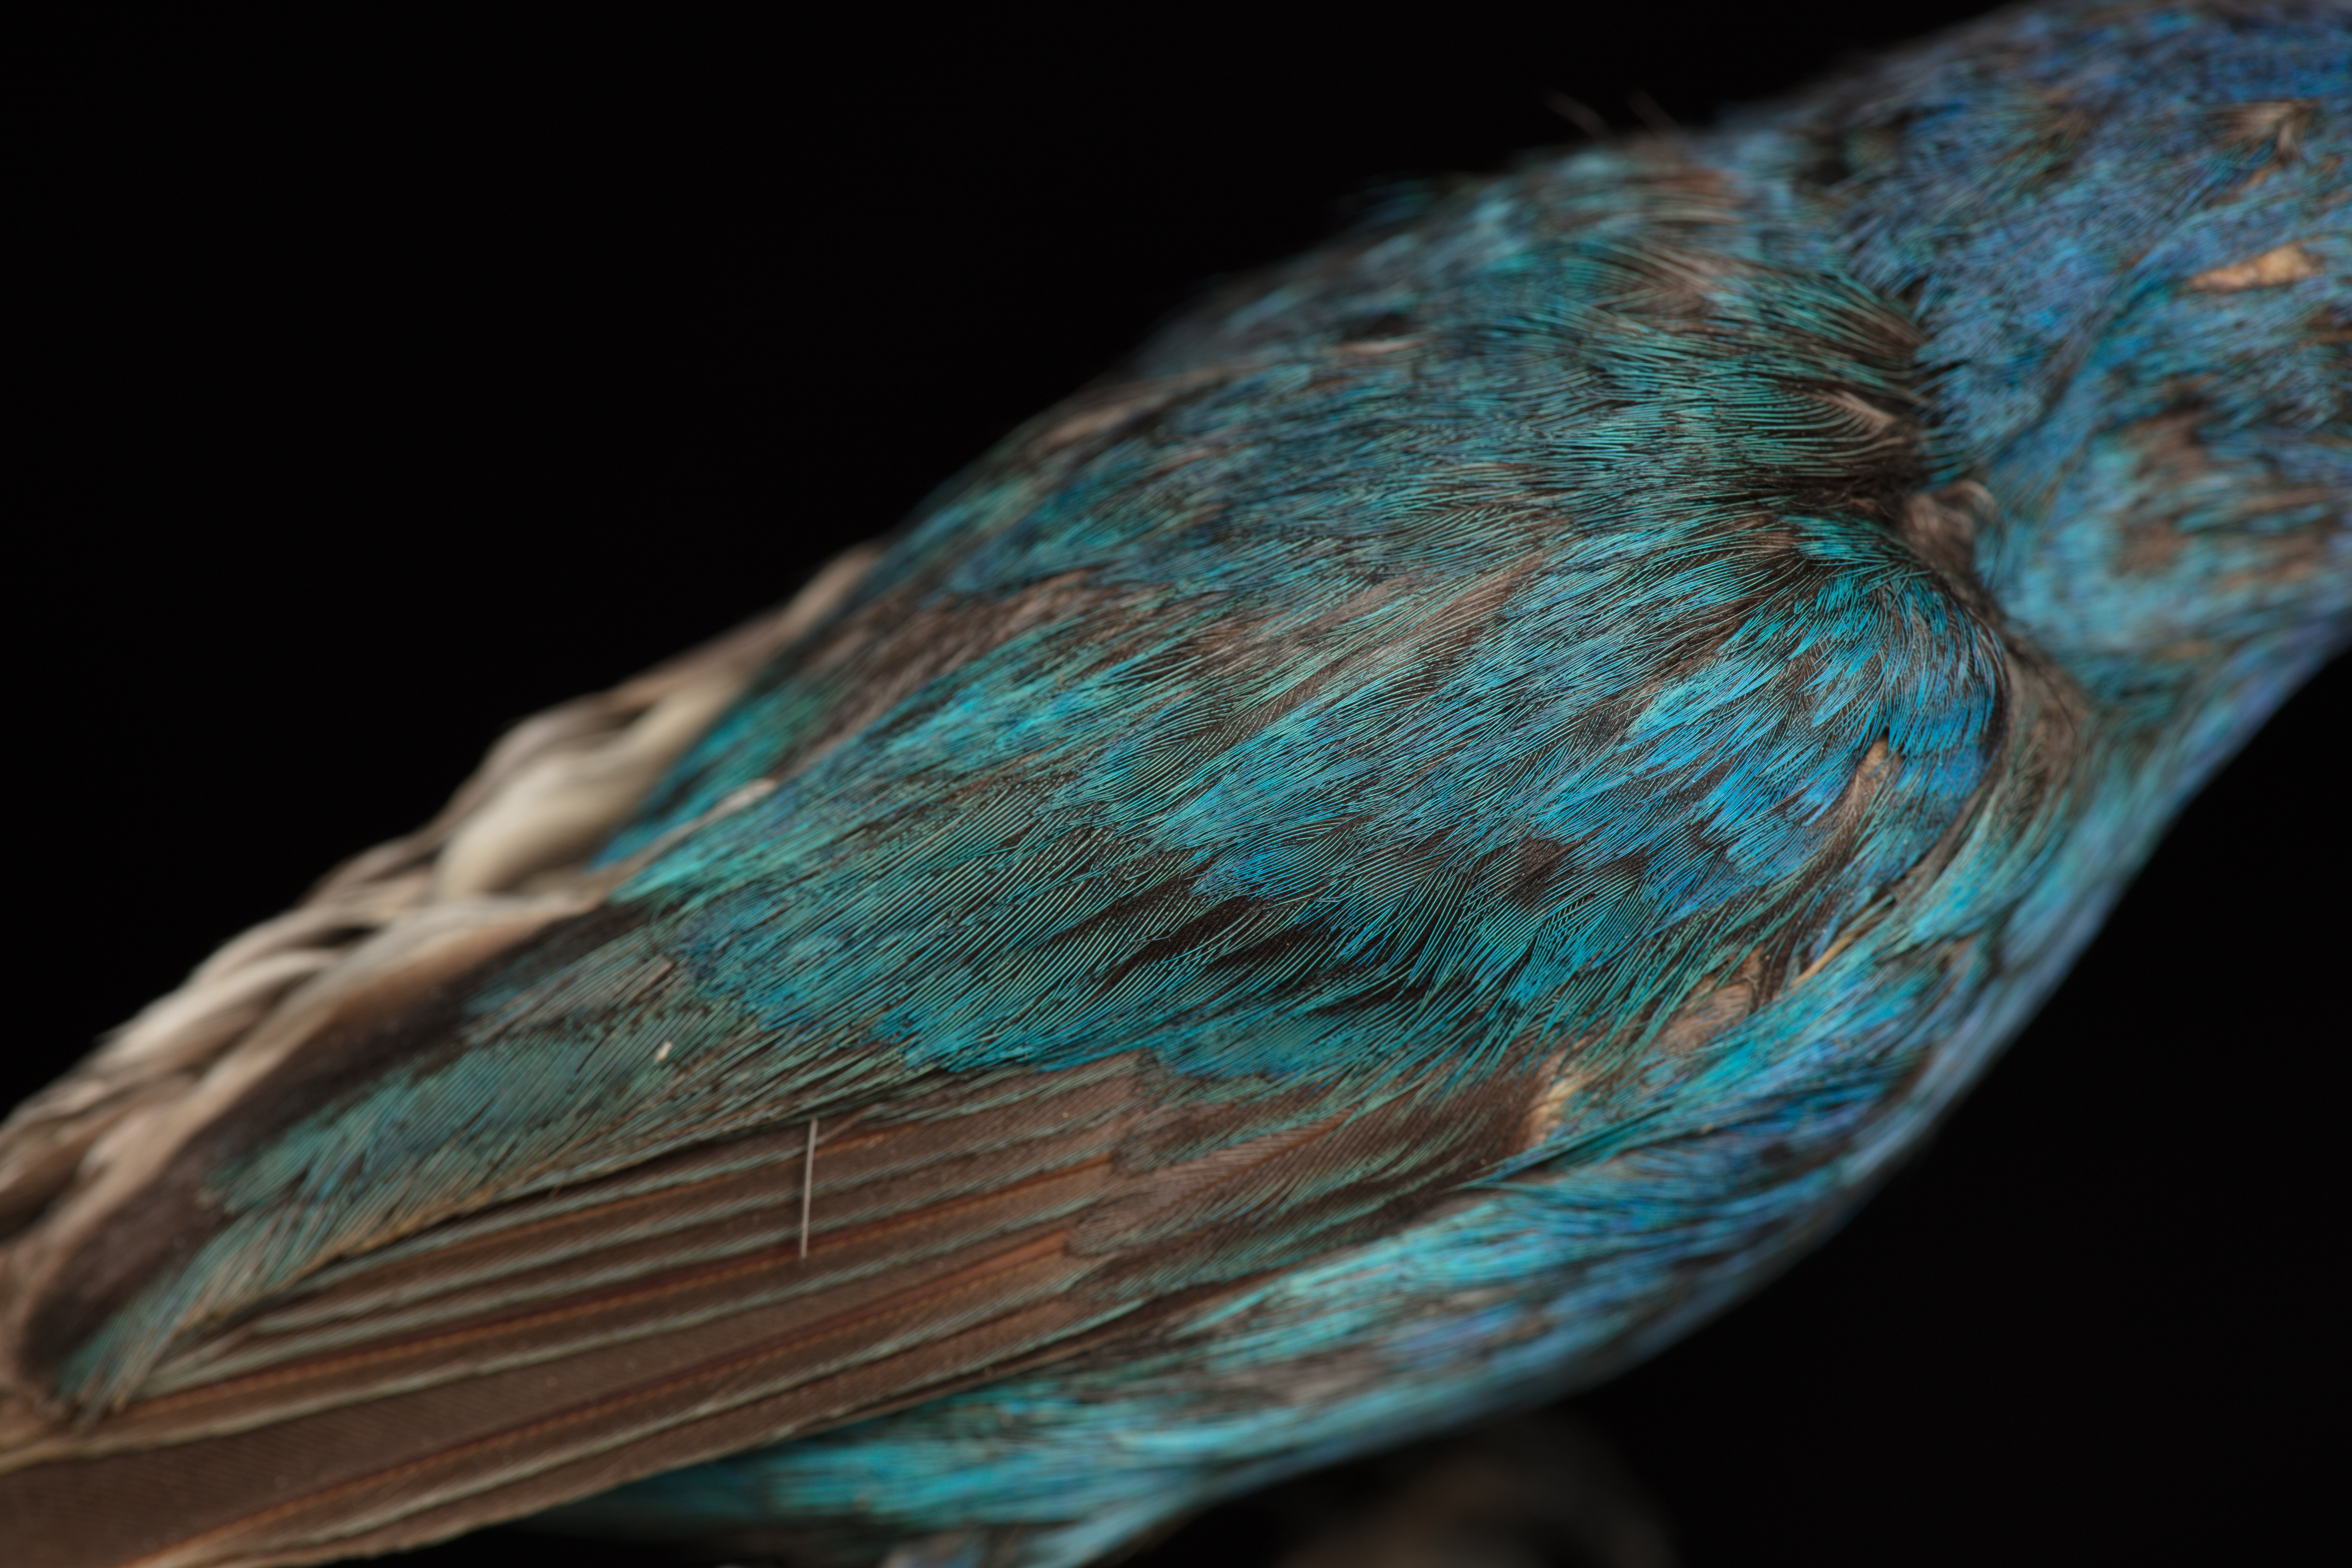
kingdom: Animalia
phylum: Chordata
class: Aves
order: Passeriformes
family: Cardinalidae
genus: Passerina
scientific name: Passerina cyanea
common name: Indigo bunting
